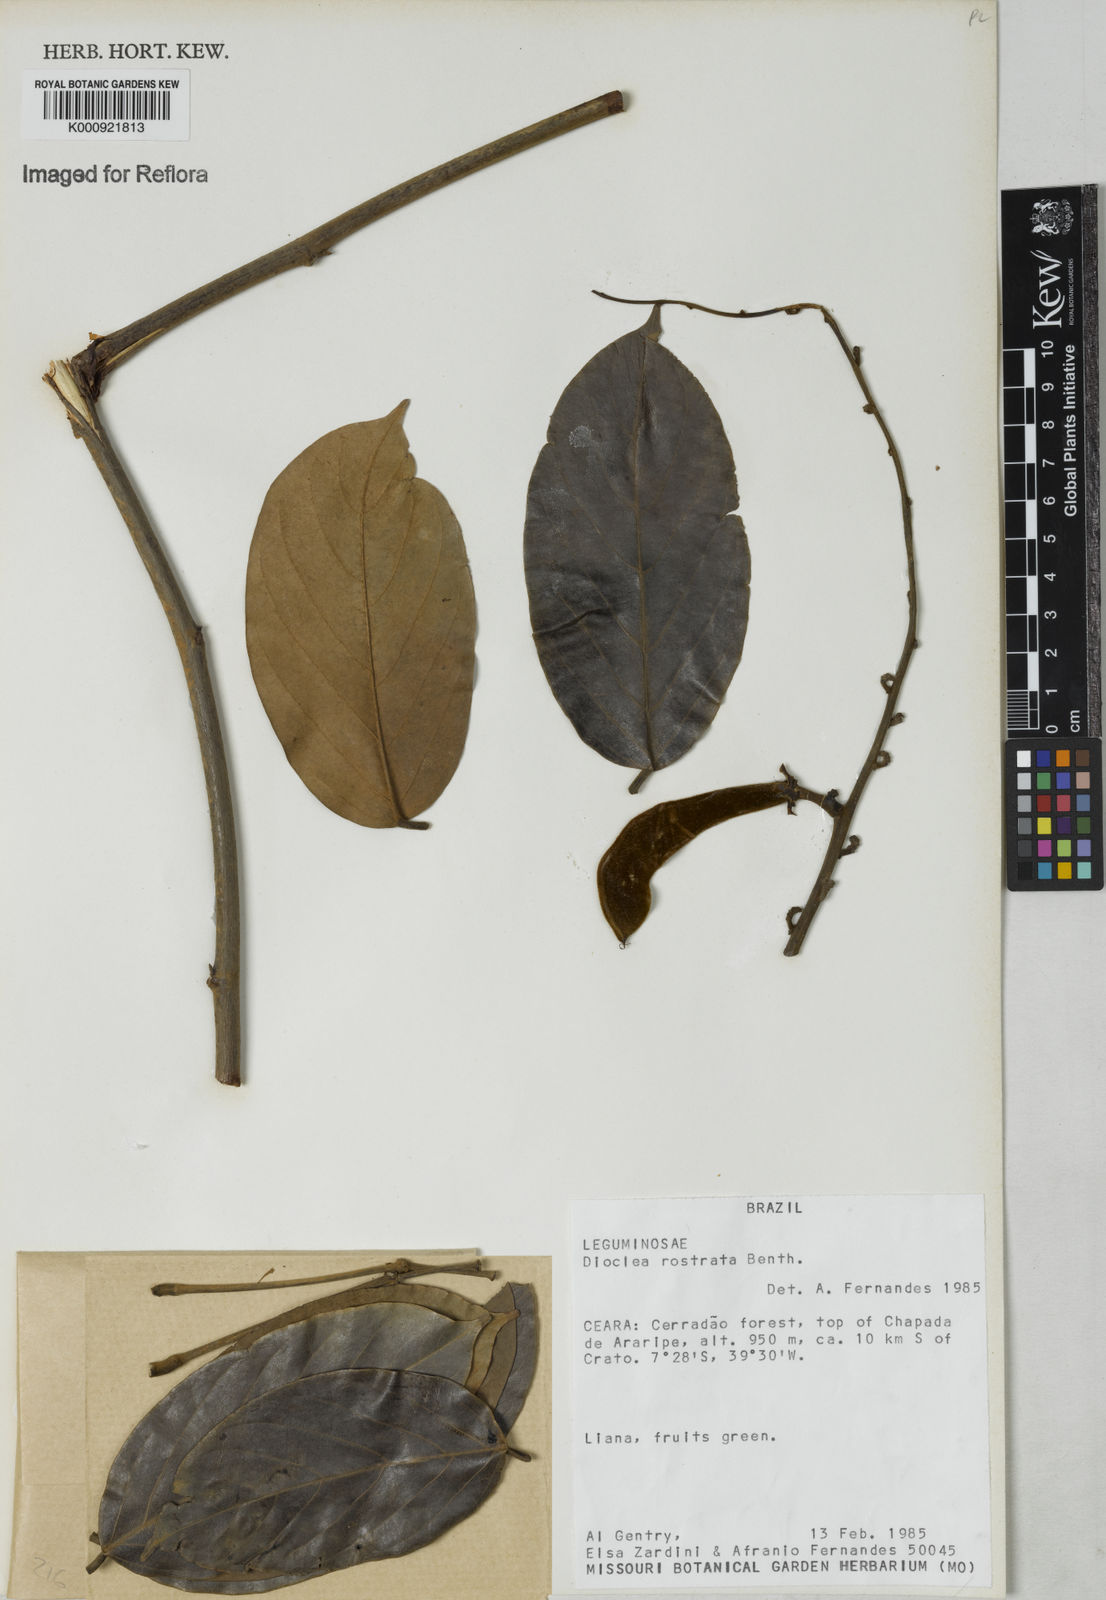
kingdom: Plantae
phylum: Tracheophyta
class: Magnoliopsida
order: Fabales
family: Fabaceae
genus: Macropsychanthus
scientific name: Macropsychanthus bicolor
